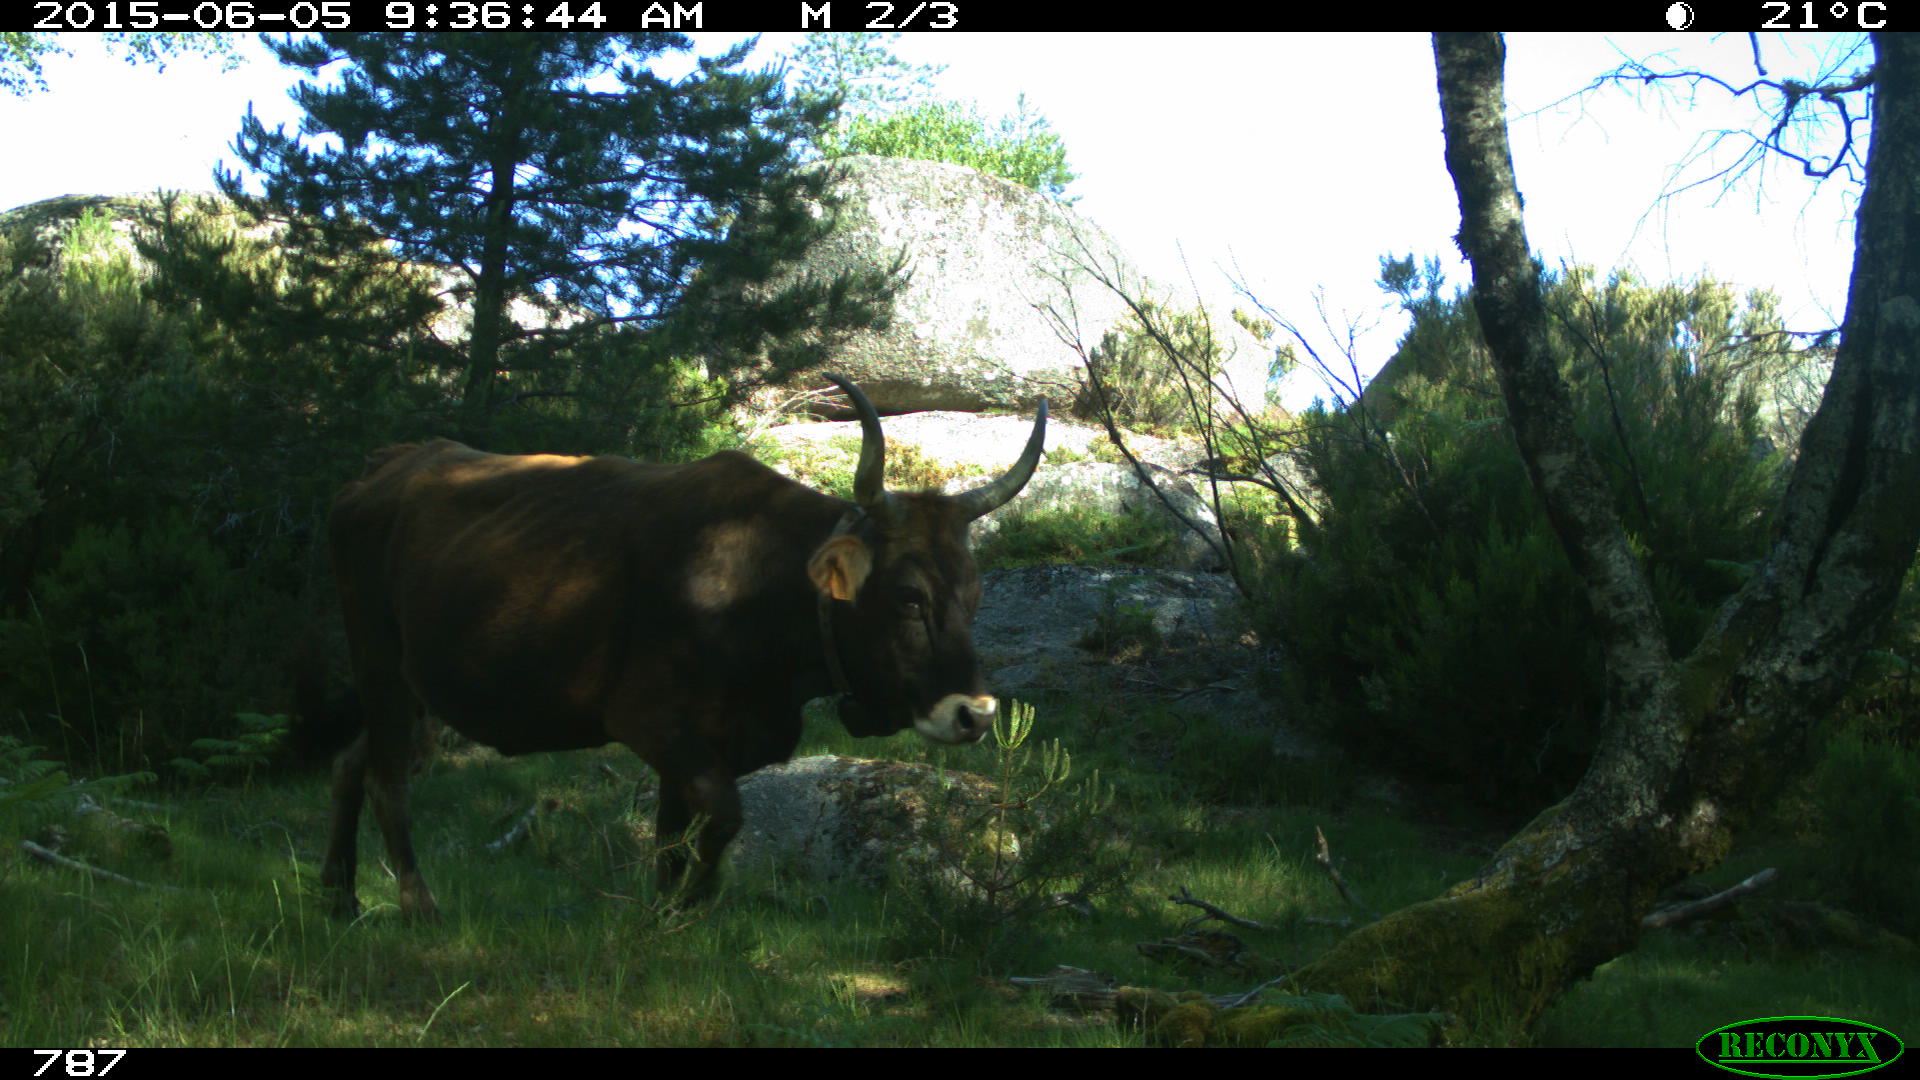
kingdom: Animalia
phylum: Chordata
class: Mammalia
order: Artiodactyla
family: Bovidae
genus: Bos
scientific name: Bos taurus
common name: Domesticated cattle
